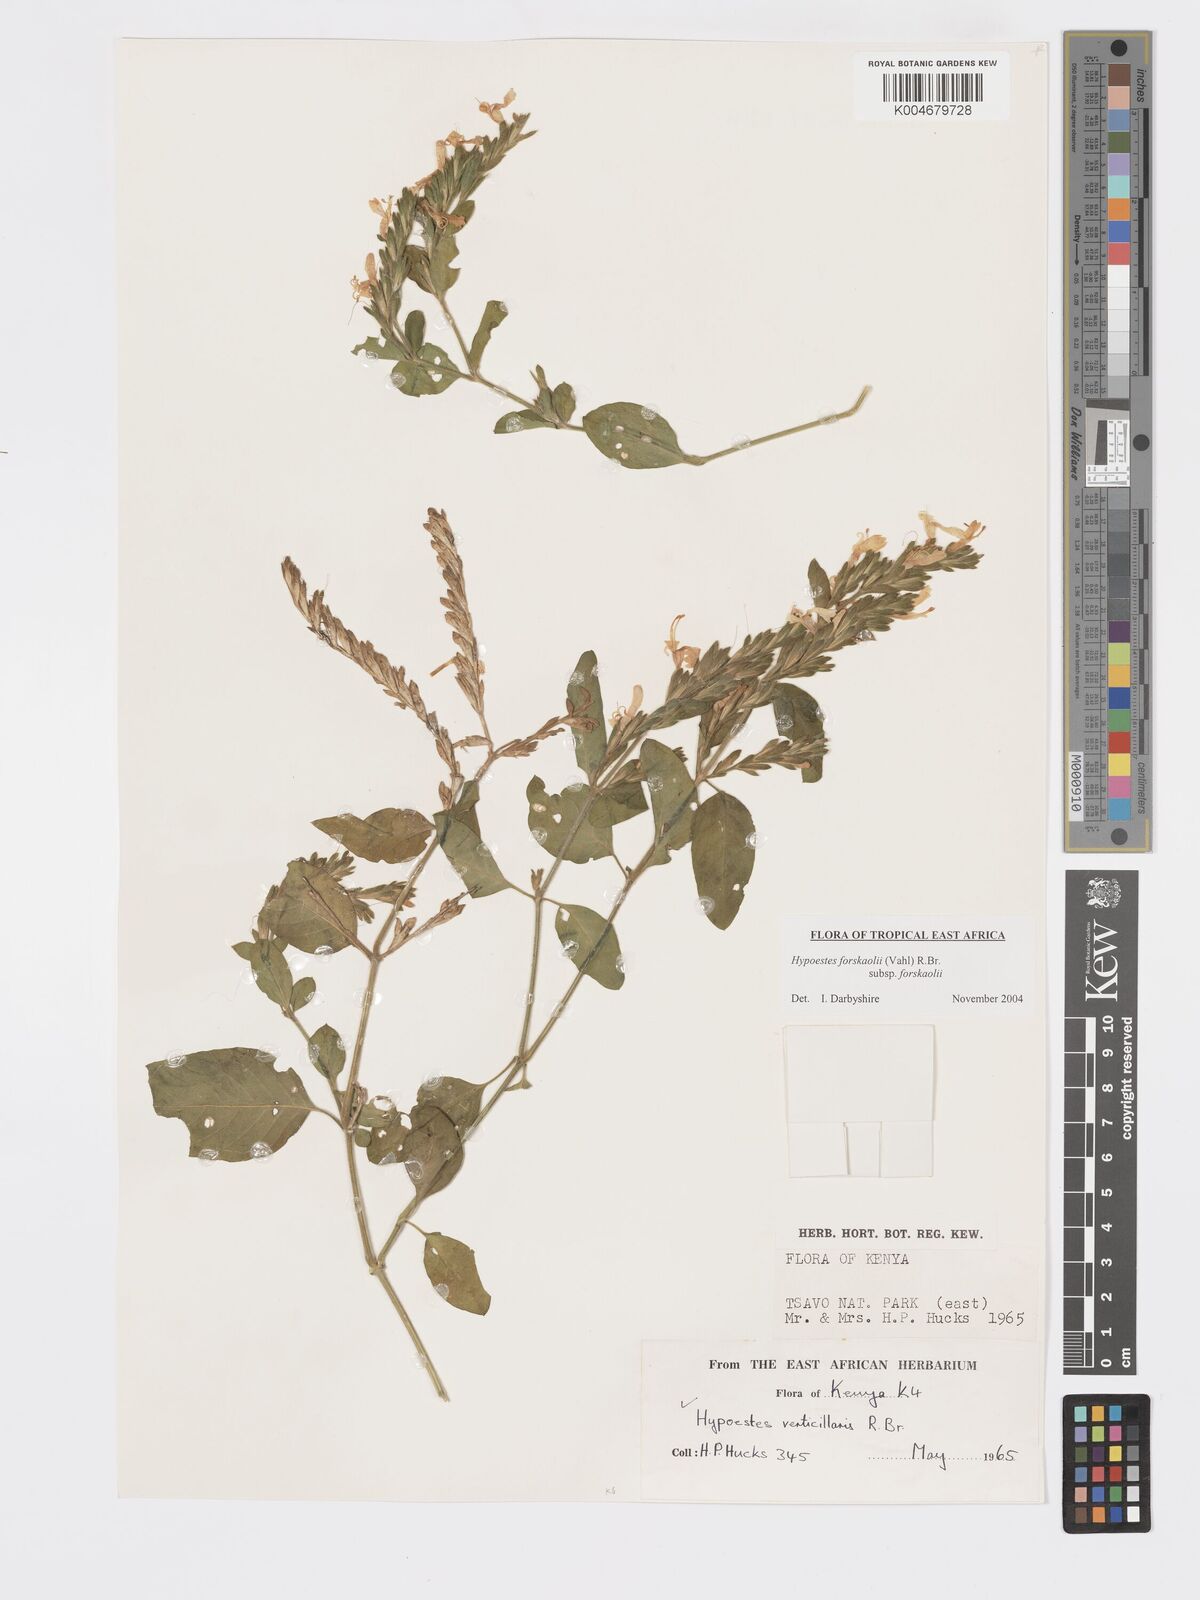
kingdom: Plantae
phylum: Tracheophyta
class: Magnoliopsida
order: Lamiales
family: Acanthaceae
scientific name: Acanthaceae
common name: Acanthaceae
